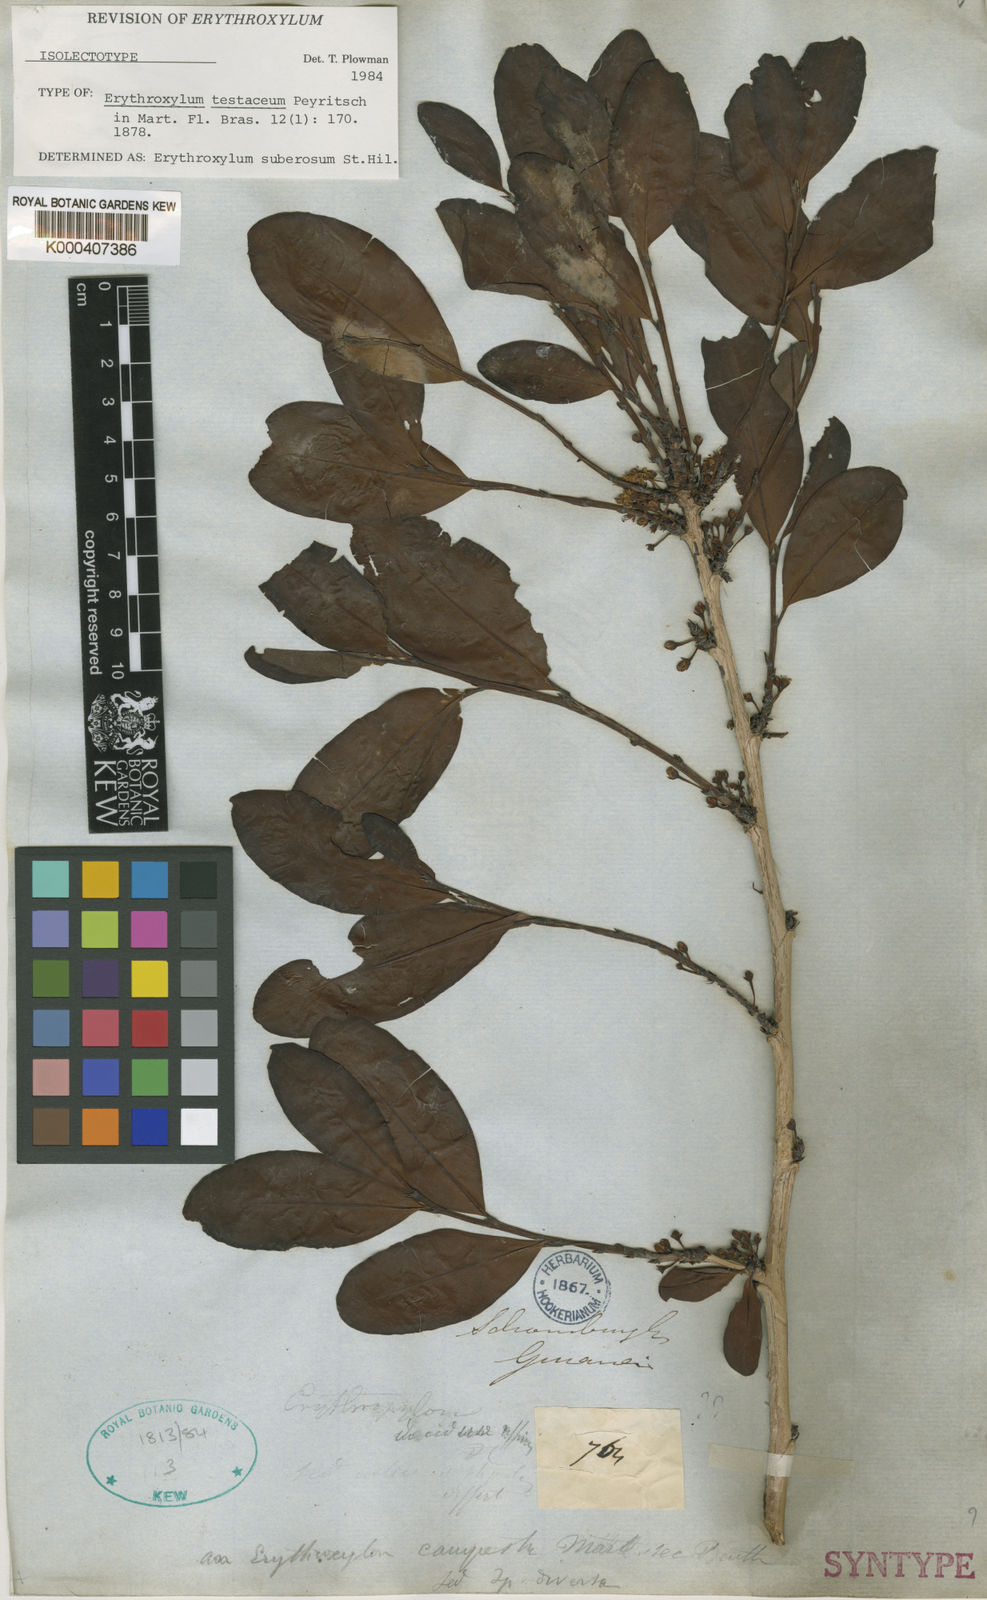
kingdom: Plantae
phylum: Tracheophyta
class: Magnoliopsida
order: Malpighiales
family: Erythroxylaceae
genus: Erythroxylum
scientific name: Erythroxylum suberosum
